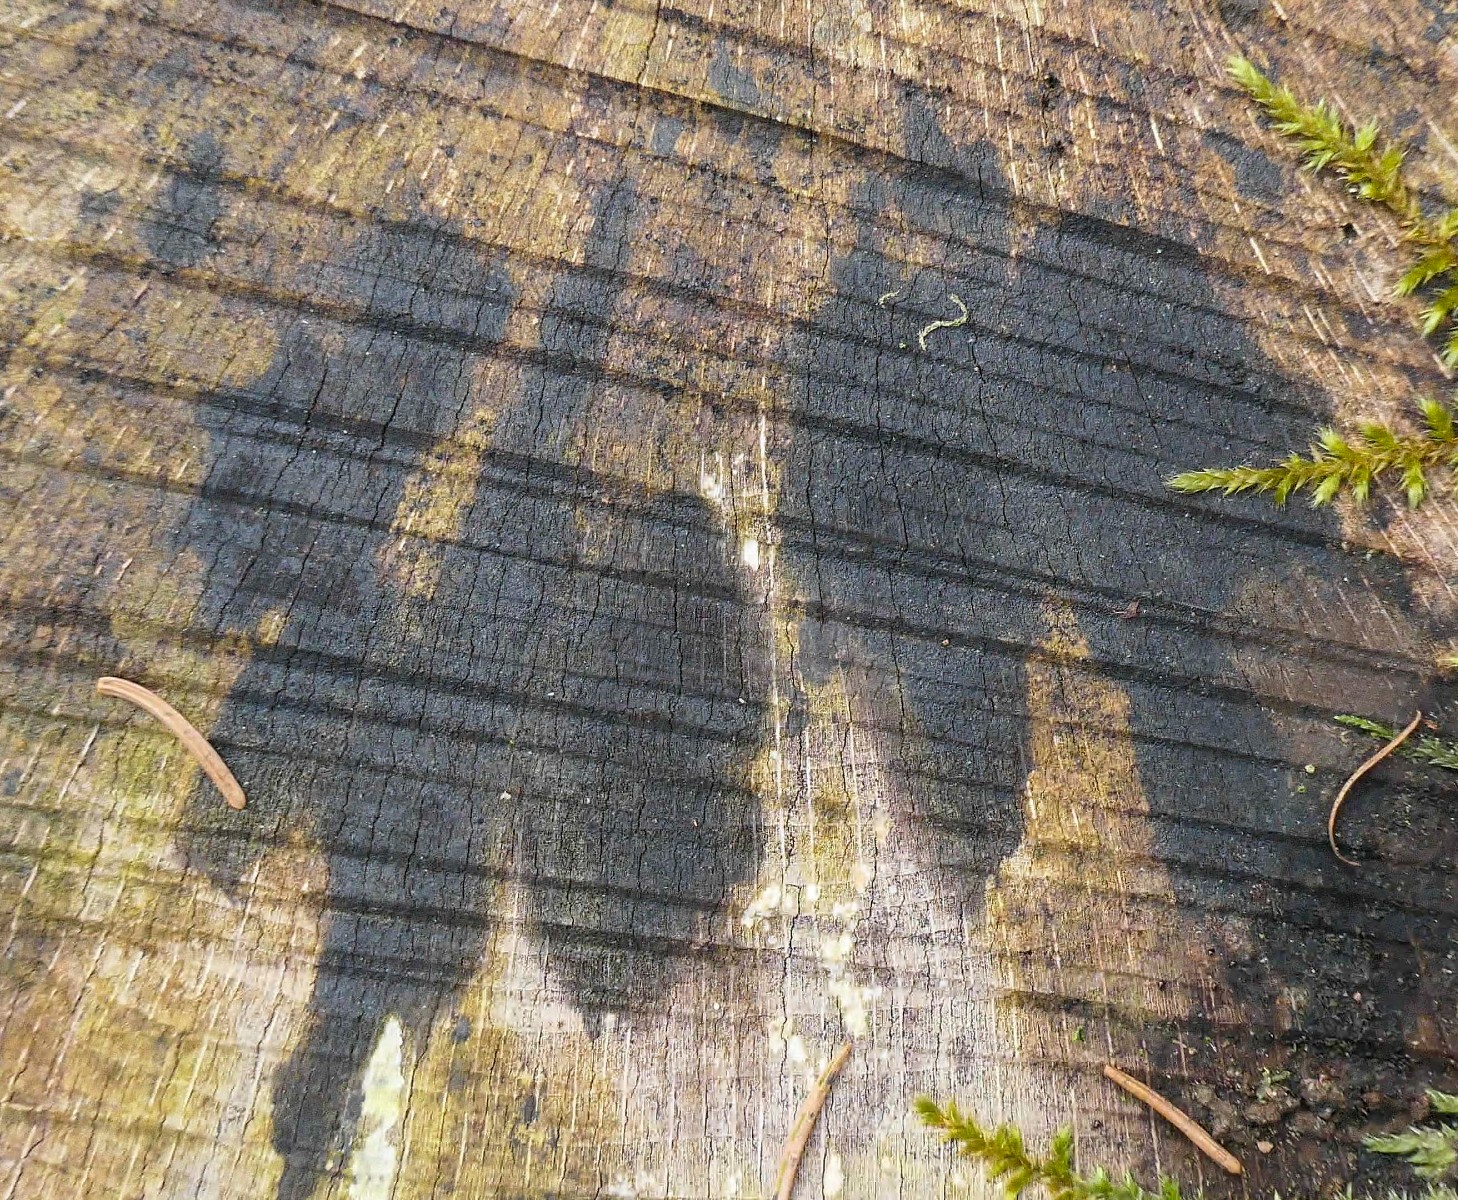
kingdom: Fungi
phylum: Ascomycota
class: Leotiomycetes
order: Helotiales
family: Helotiaceae
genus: Bispora
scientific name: Bispora pallescens
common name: måtte-snitskive
